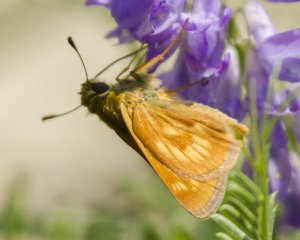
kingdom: Animalia
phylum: Arthropoda
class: Insecta
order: Lepidoptera
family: Hesperiidae
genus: Polites
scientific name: Polites
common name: Long Dash Skipper
